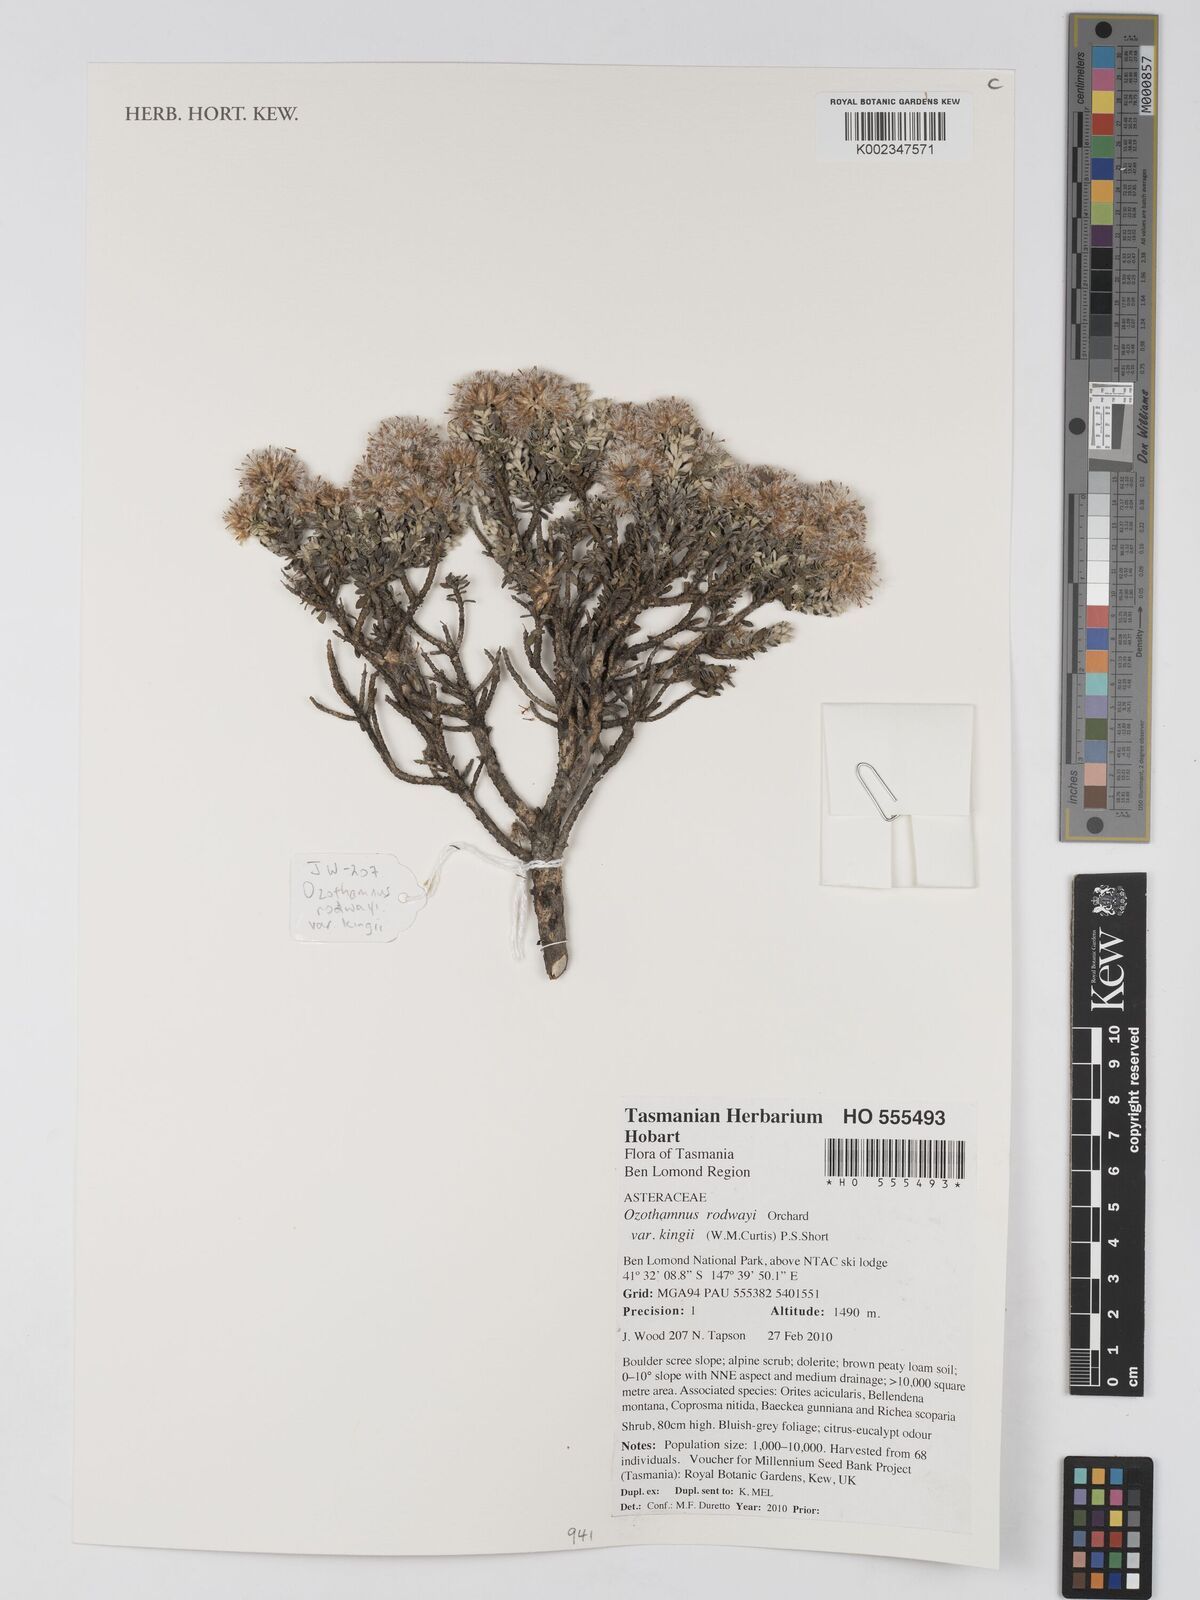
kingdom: Plantae
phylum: Tracheophyta
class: Magnoliopsida
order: Asterales
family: Asteraceae
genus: Ozothamnus
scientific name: Ozothamnus rodwayi
